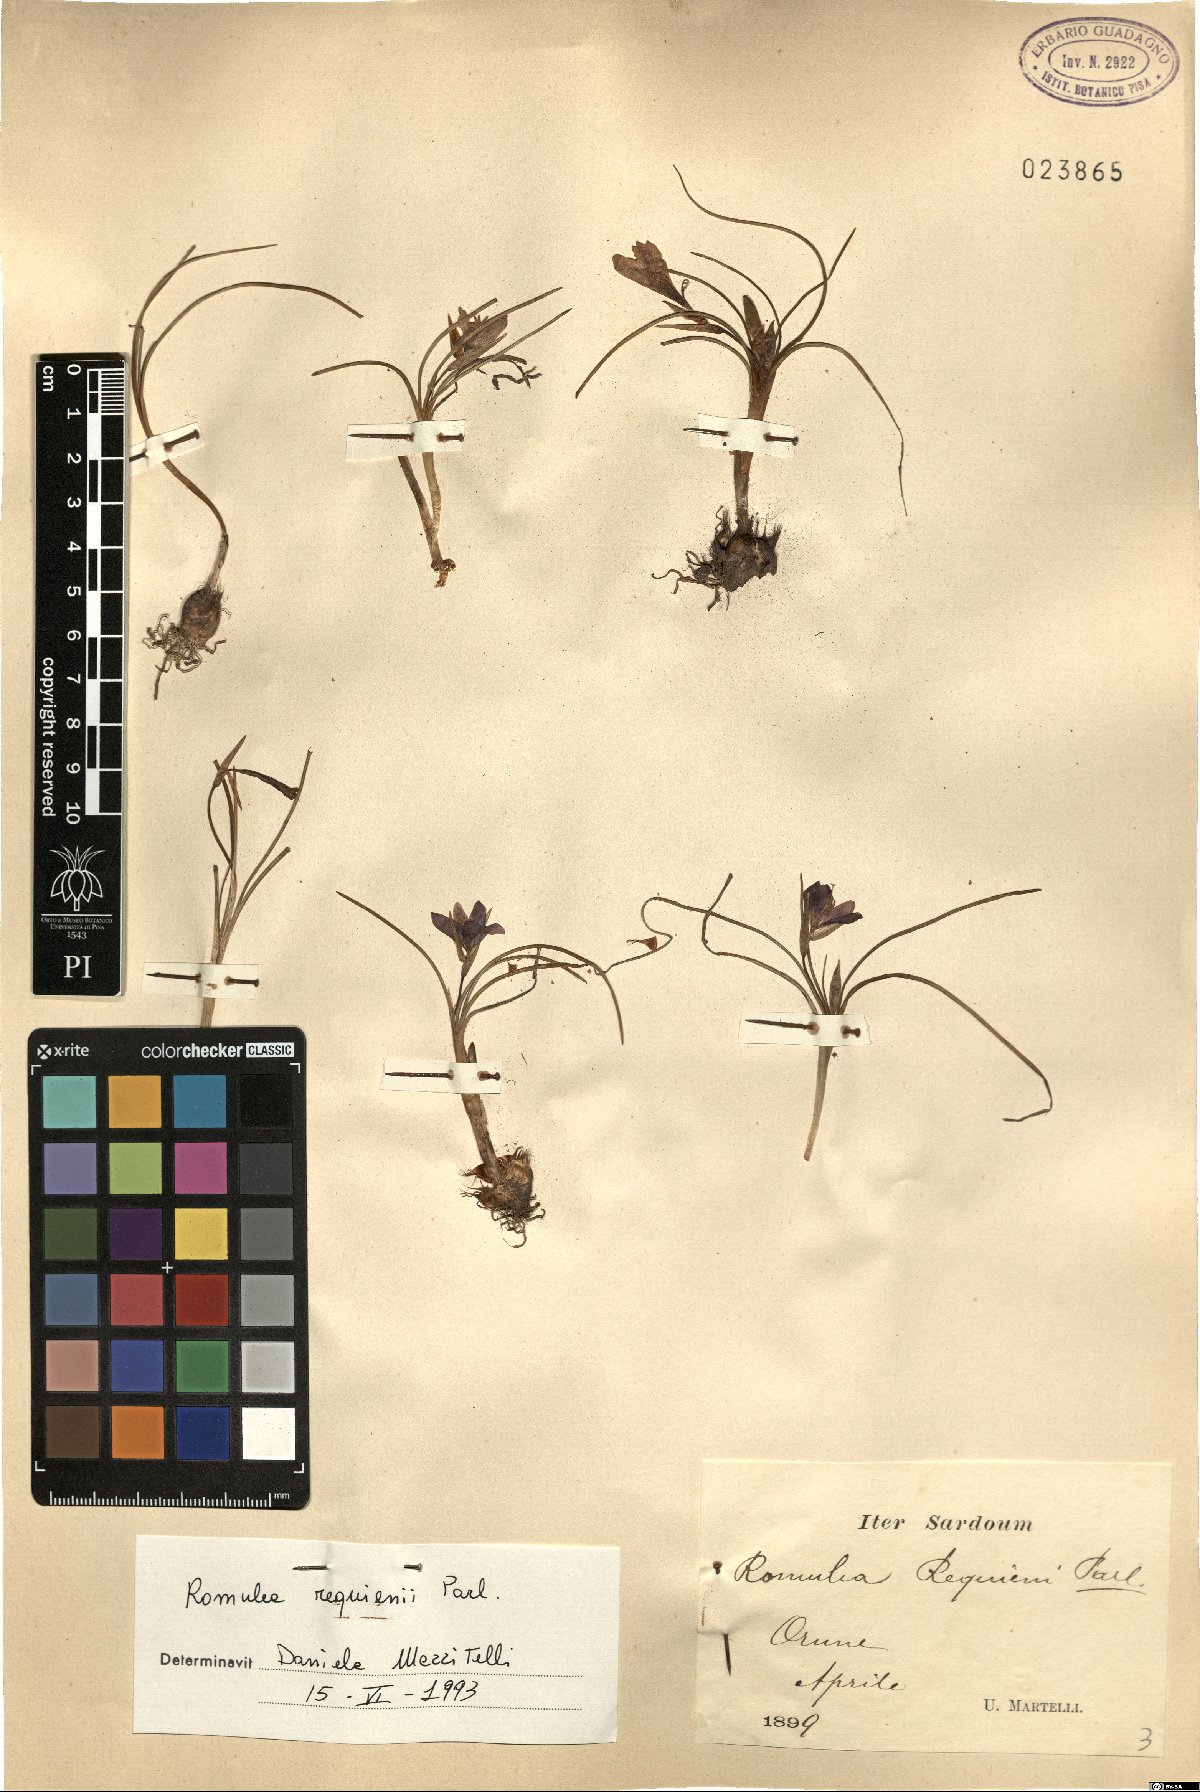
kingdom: Plantae
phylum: Tracheophyta
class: Liliopsida
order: Asparagales
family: Iridaceae
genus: Romulea
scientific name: Romulea requienii
